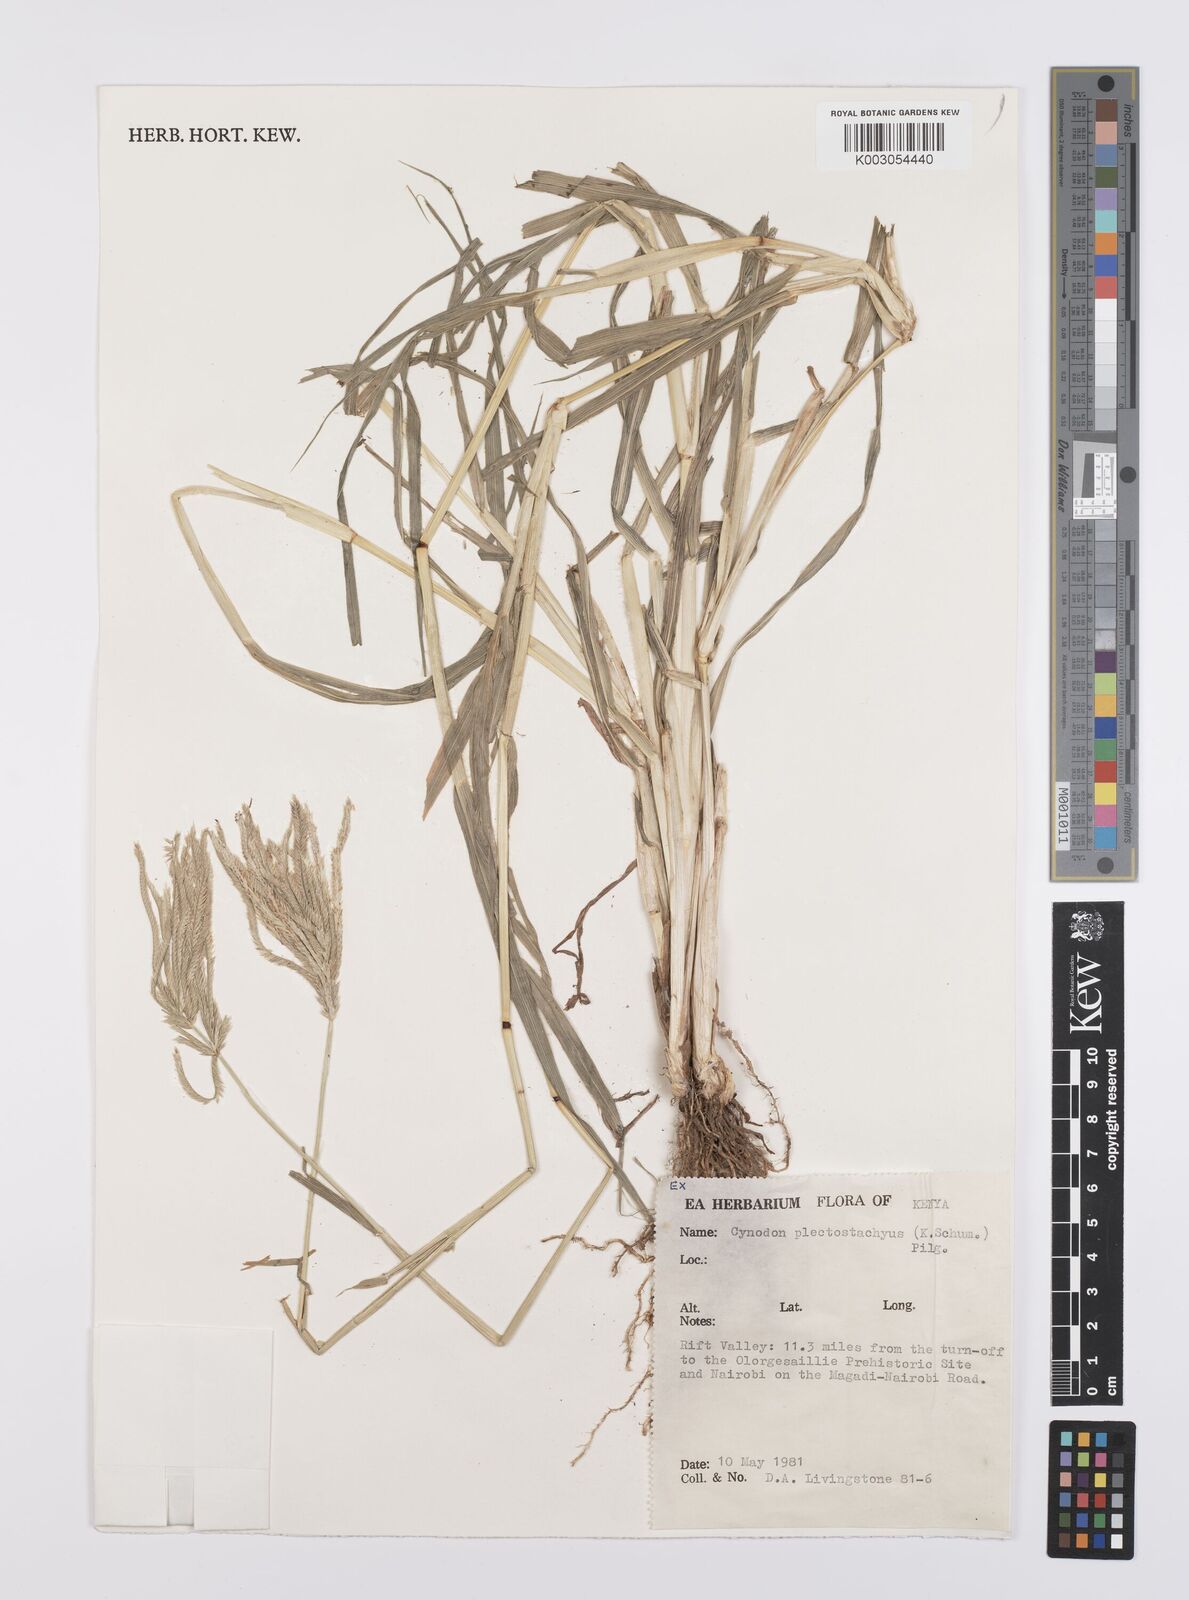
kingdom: Plantae
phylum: Tracheophyta
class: Liliopsida
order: Poales
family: Poaceae
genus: Cynodon
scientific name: Cynodon plectostachyus
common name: Stargrass
